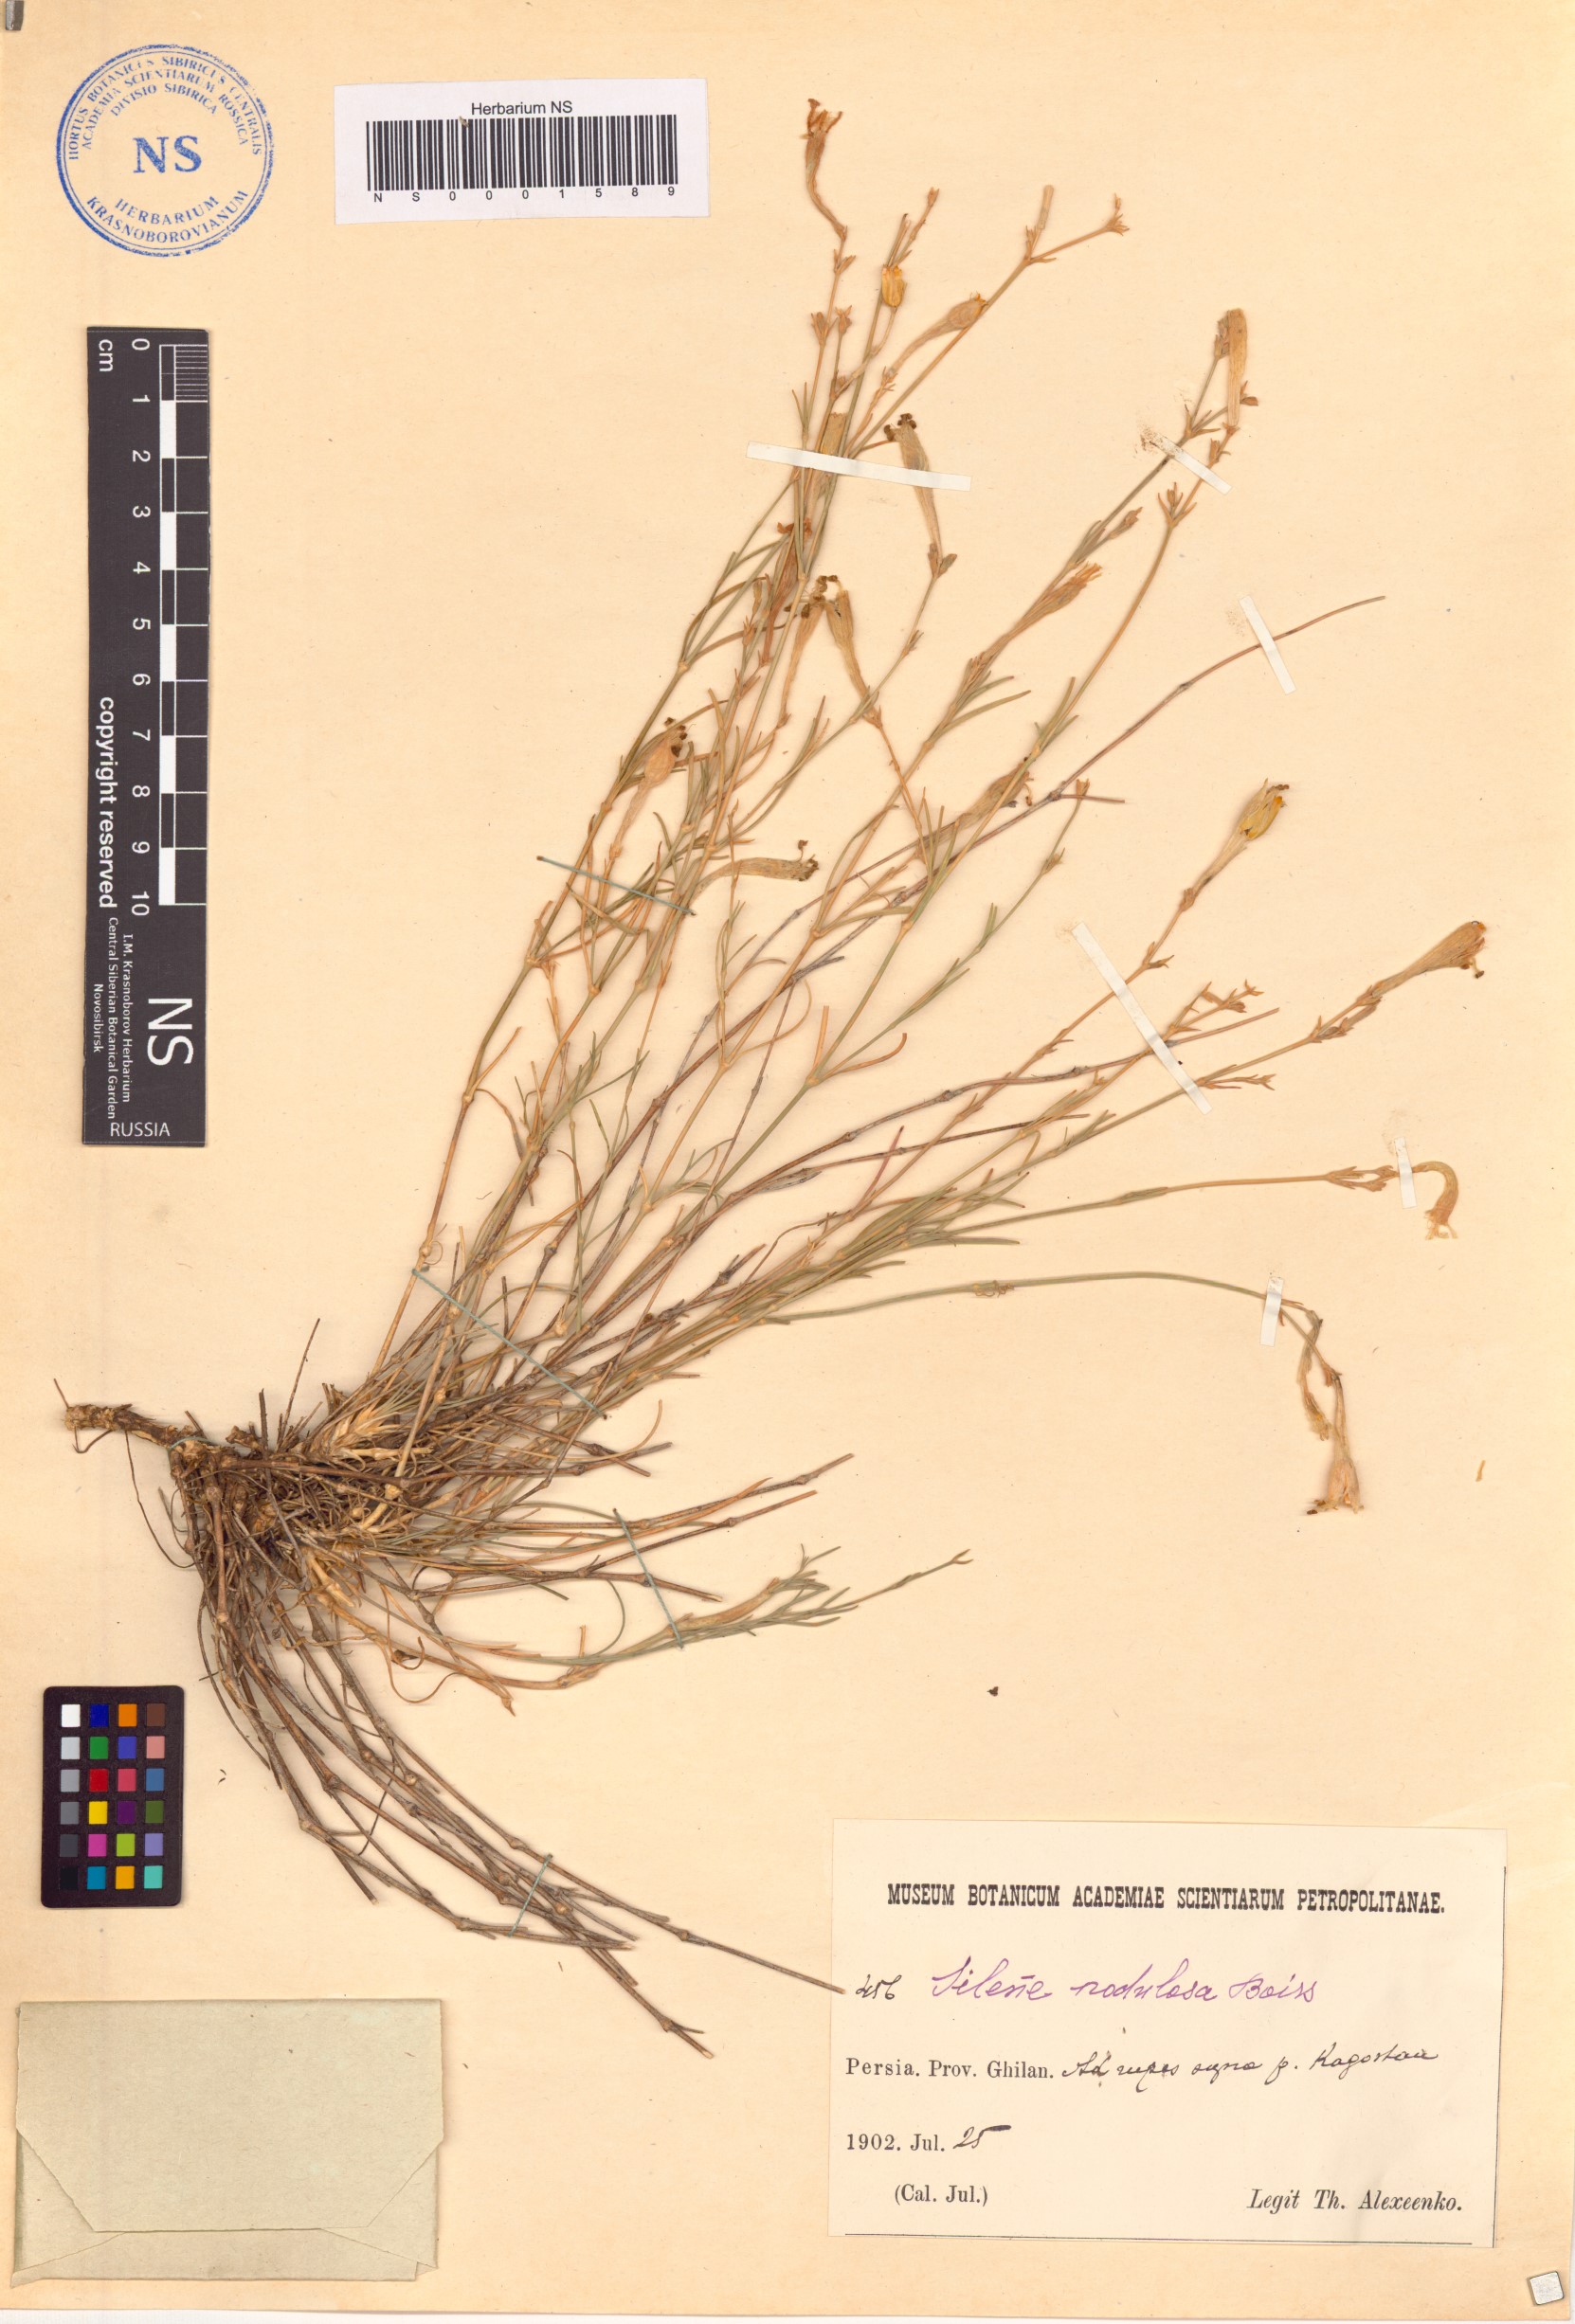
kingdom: Plantae
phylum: Tracheophyta
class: Magnoliopsida
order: Caryophyllales
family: Caryophyllaceae
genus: Silene
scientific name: Silene gynodioica
